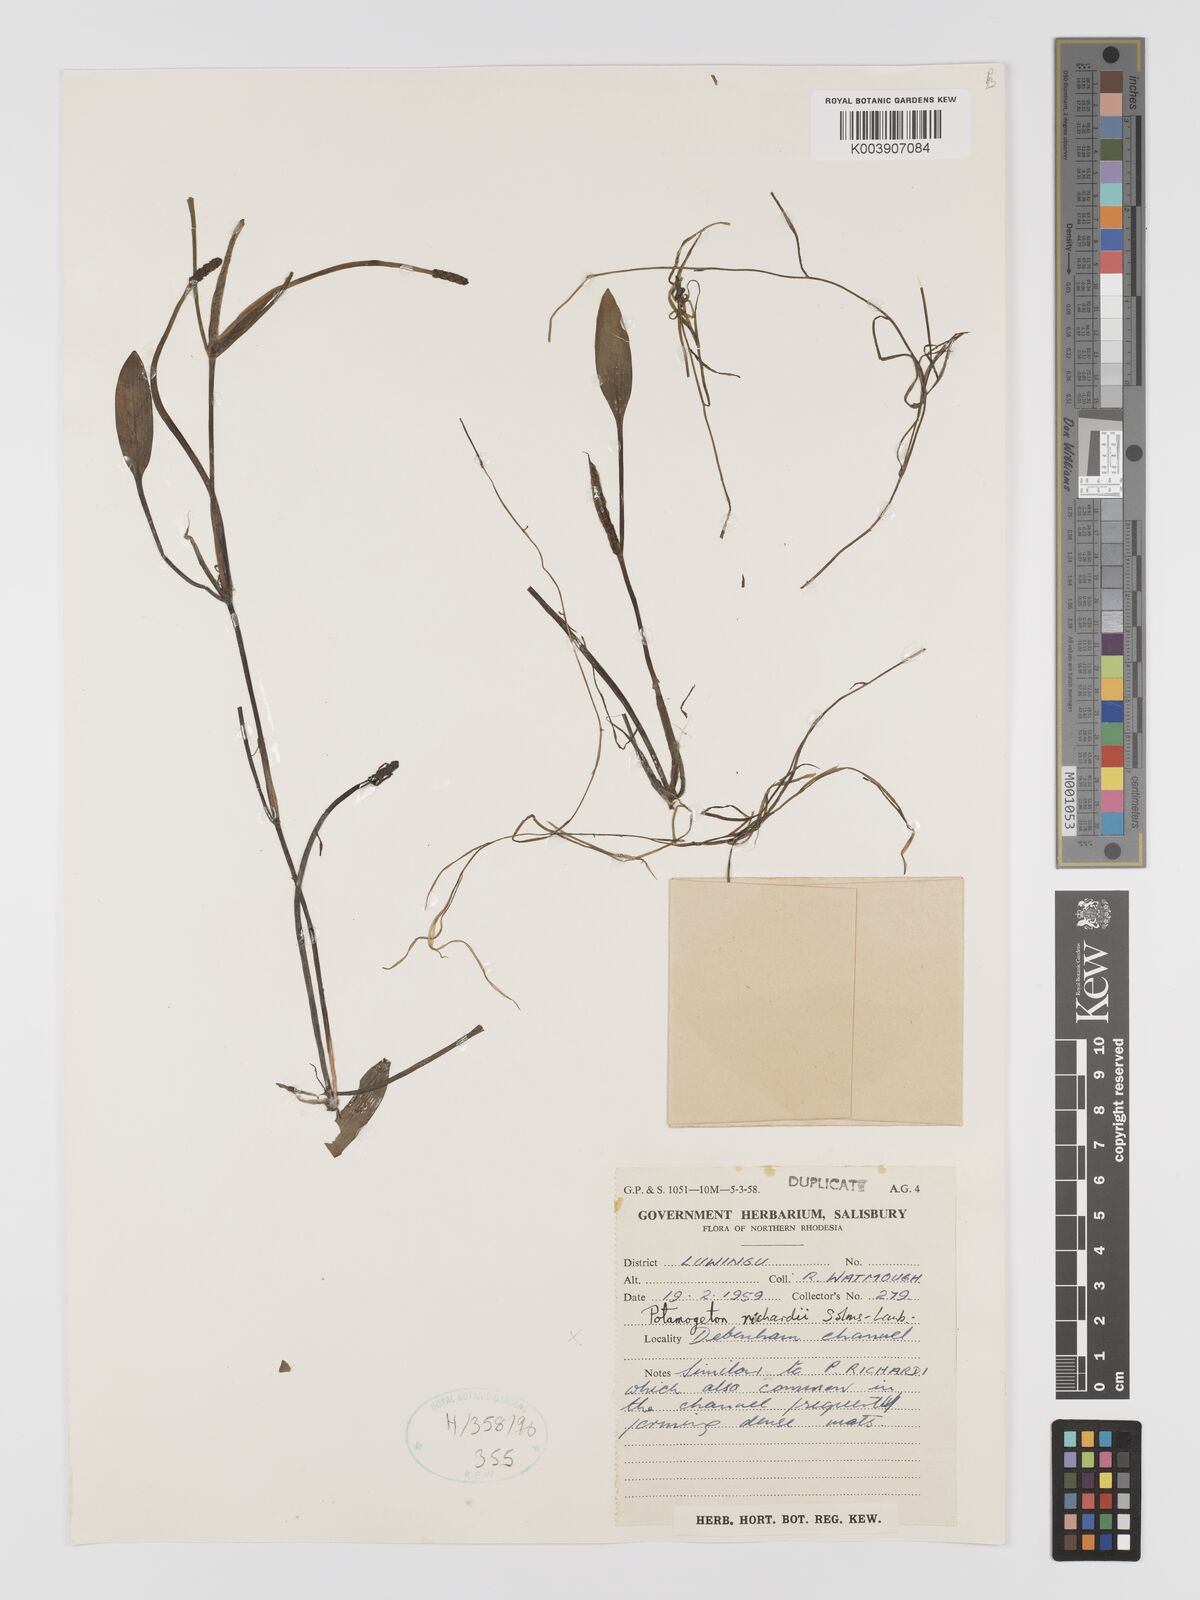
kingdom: Plantae
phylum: Tracheophyta
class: Liliopsida
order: Alismatales
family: Potamogetonaceae
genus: Potamogeton
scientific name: Potamogeton nodosus
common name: Loddon pondweed
